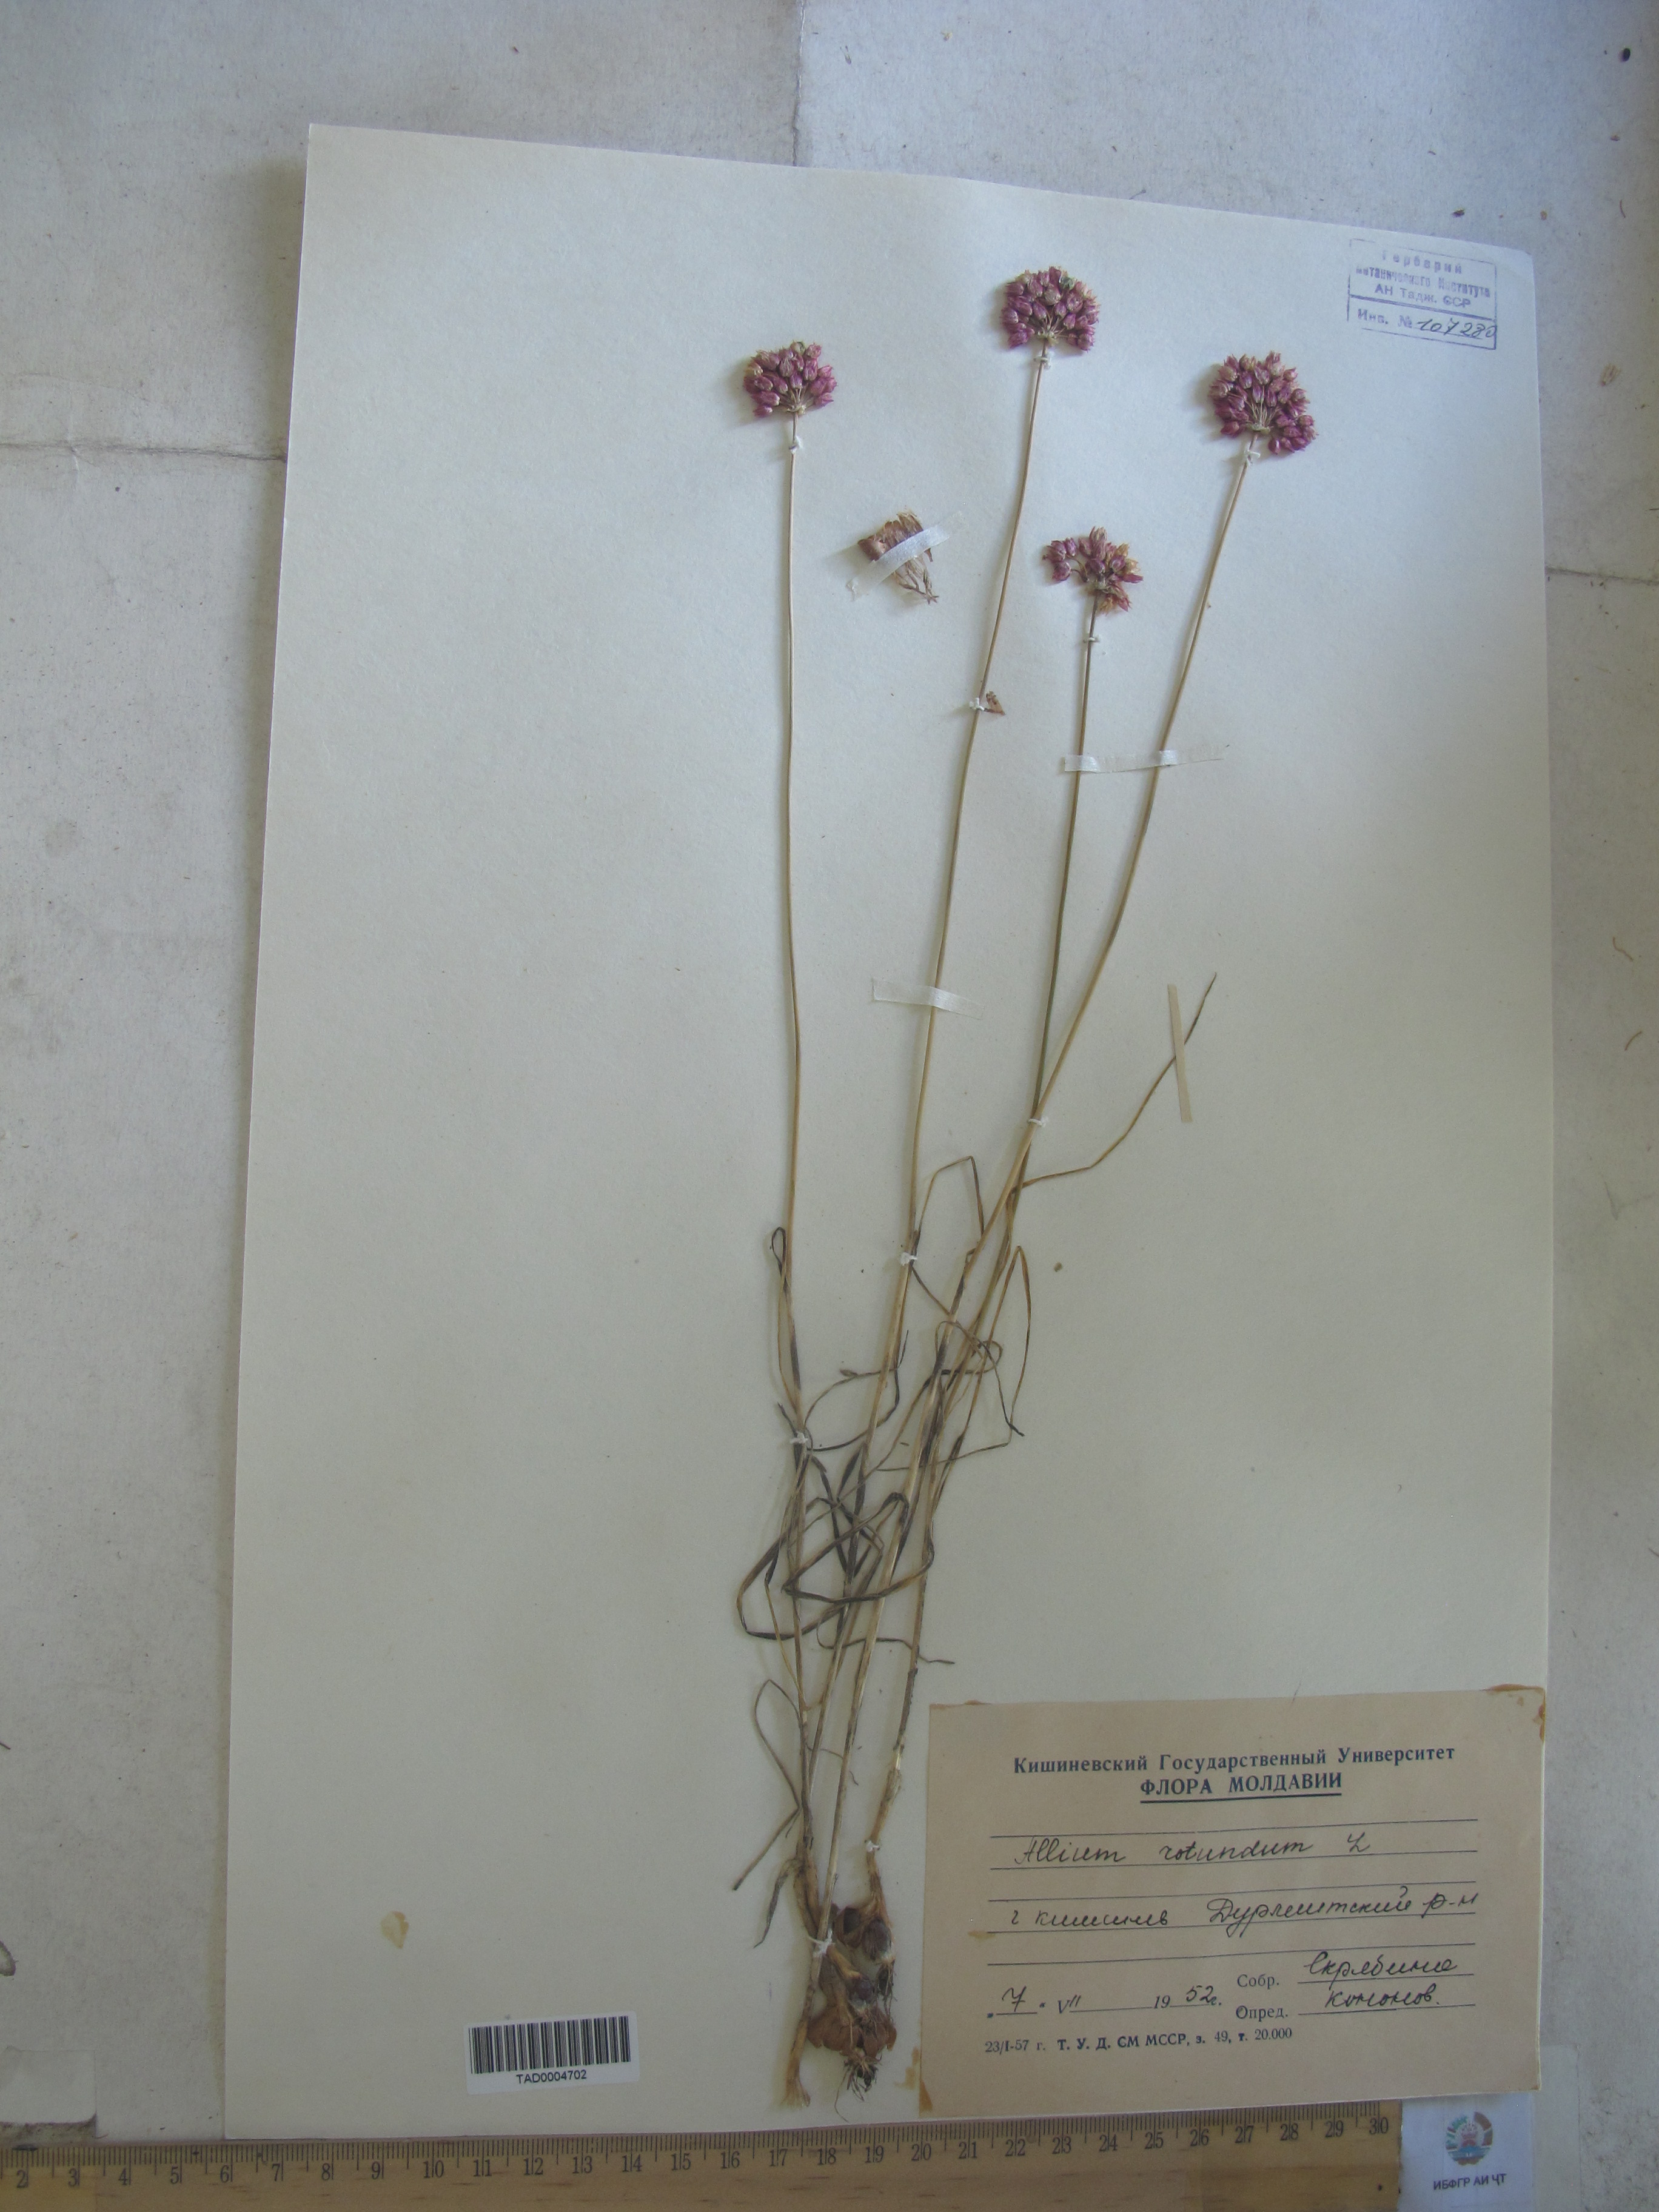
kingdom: Plantae
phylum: Tracheophyta
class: Liliopsida
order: Asparagales
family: Amaryllidaceae
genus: Allium
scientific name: Allium rotundum
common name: Sand leek
